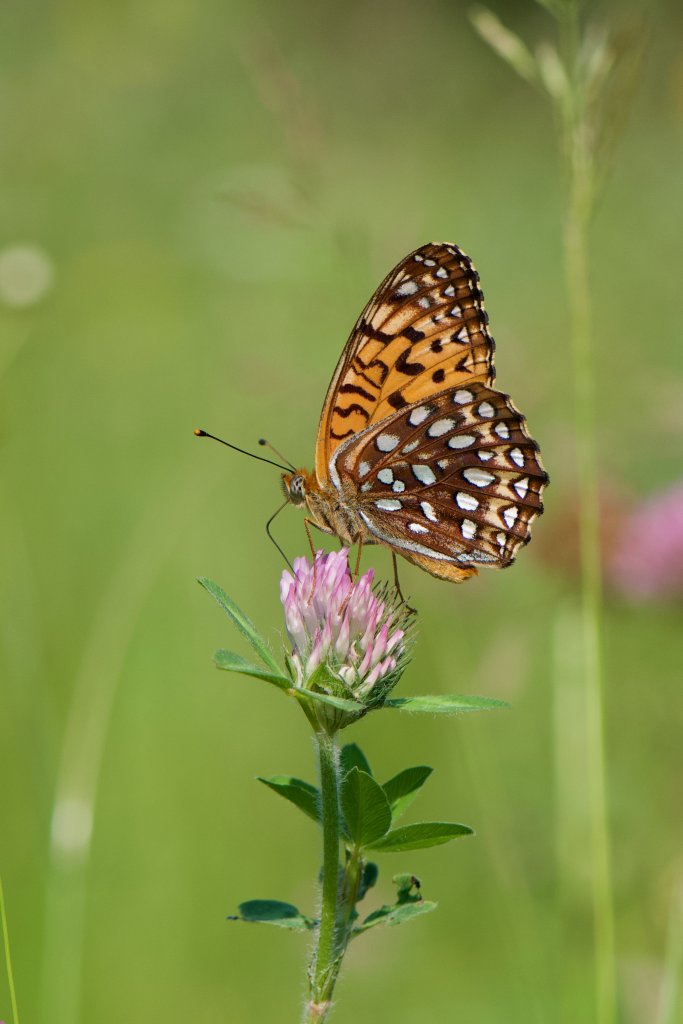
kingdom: Animalia
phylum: Arthropoda
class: Insecta
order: Lepidoptera
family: Nymphalidae
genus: Speyeria
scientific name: Speyeria atlantis
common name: Atlantis Fritillary
